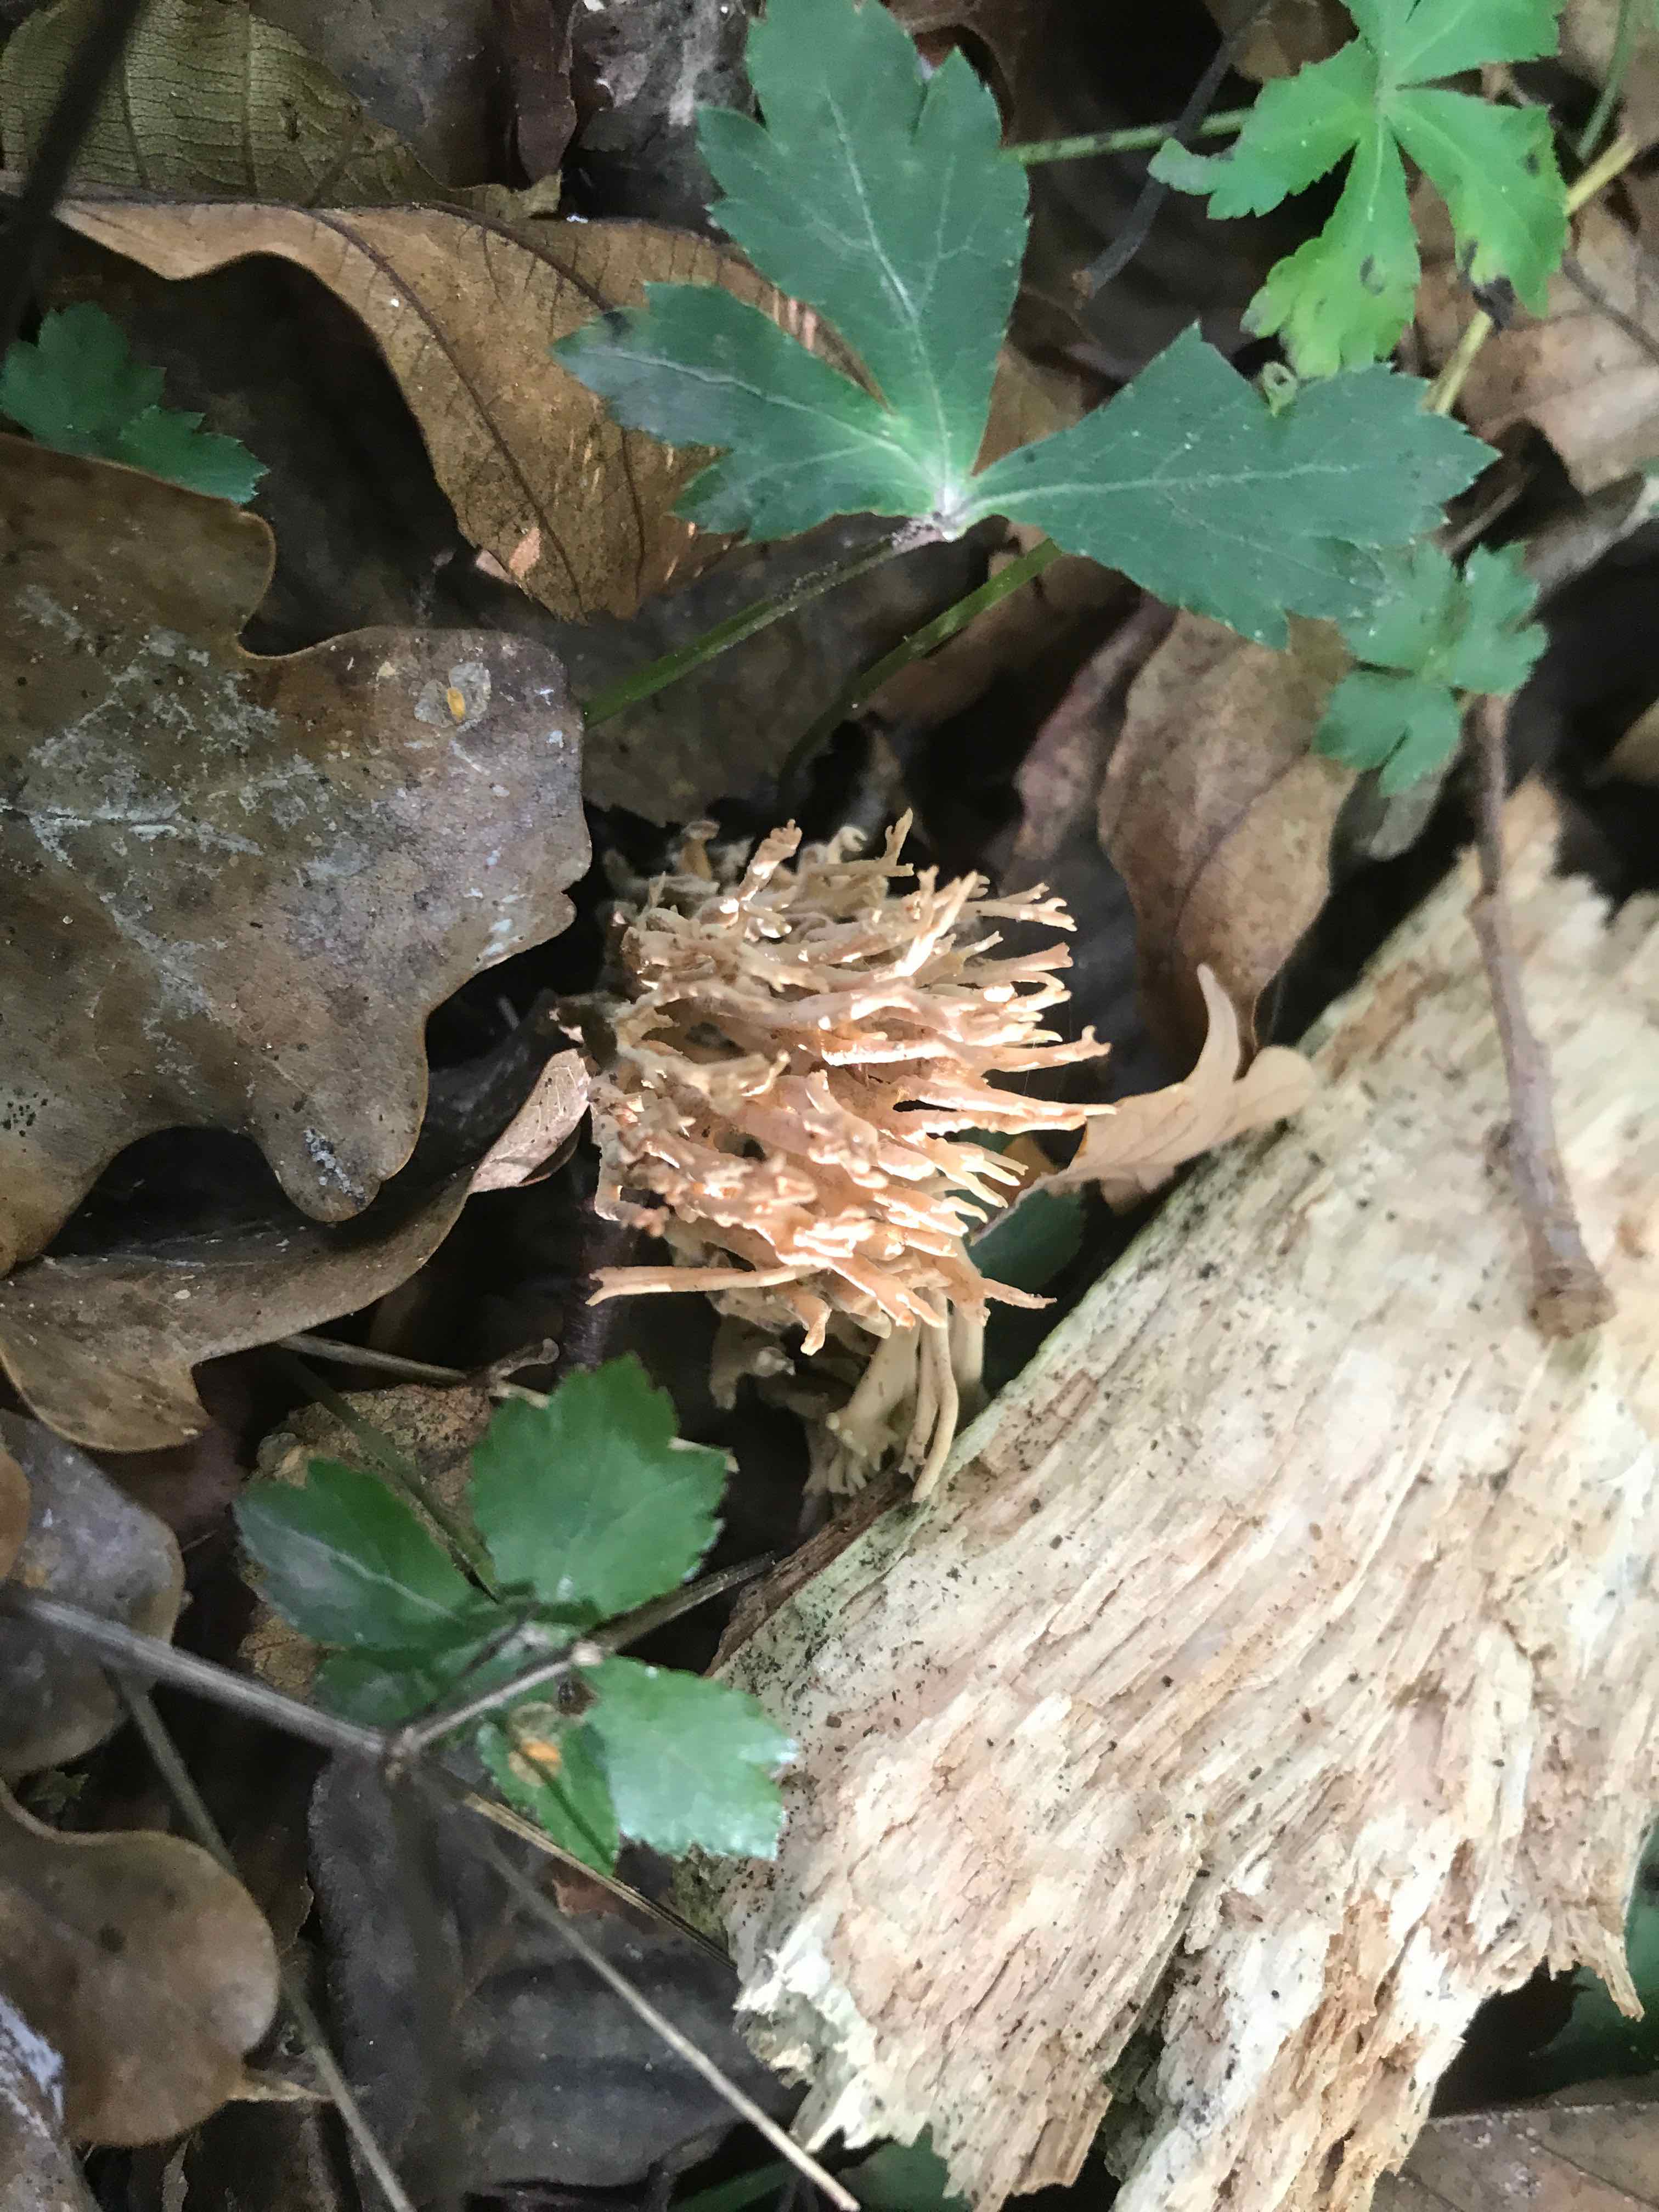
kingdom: Fungi
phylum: Basidiomycota
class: Agaricomycetes
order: Gomphales
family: Gomphaceae
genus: Ramaria
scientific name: Ramaria stricta
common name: rank koralsvamp
